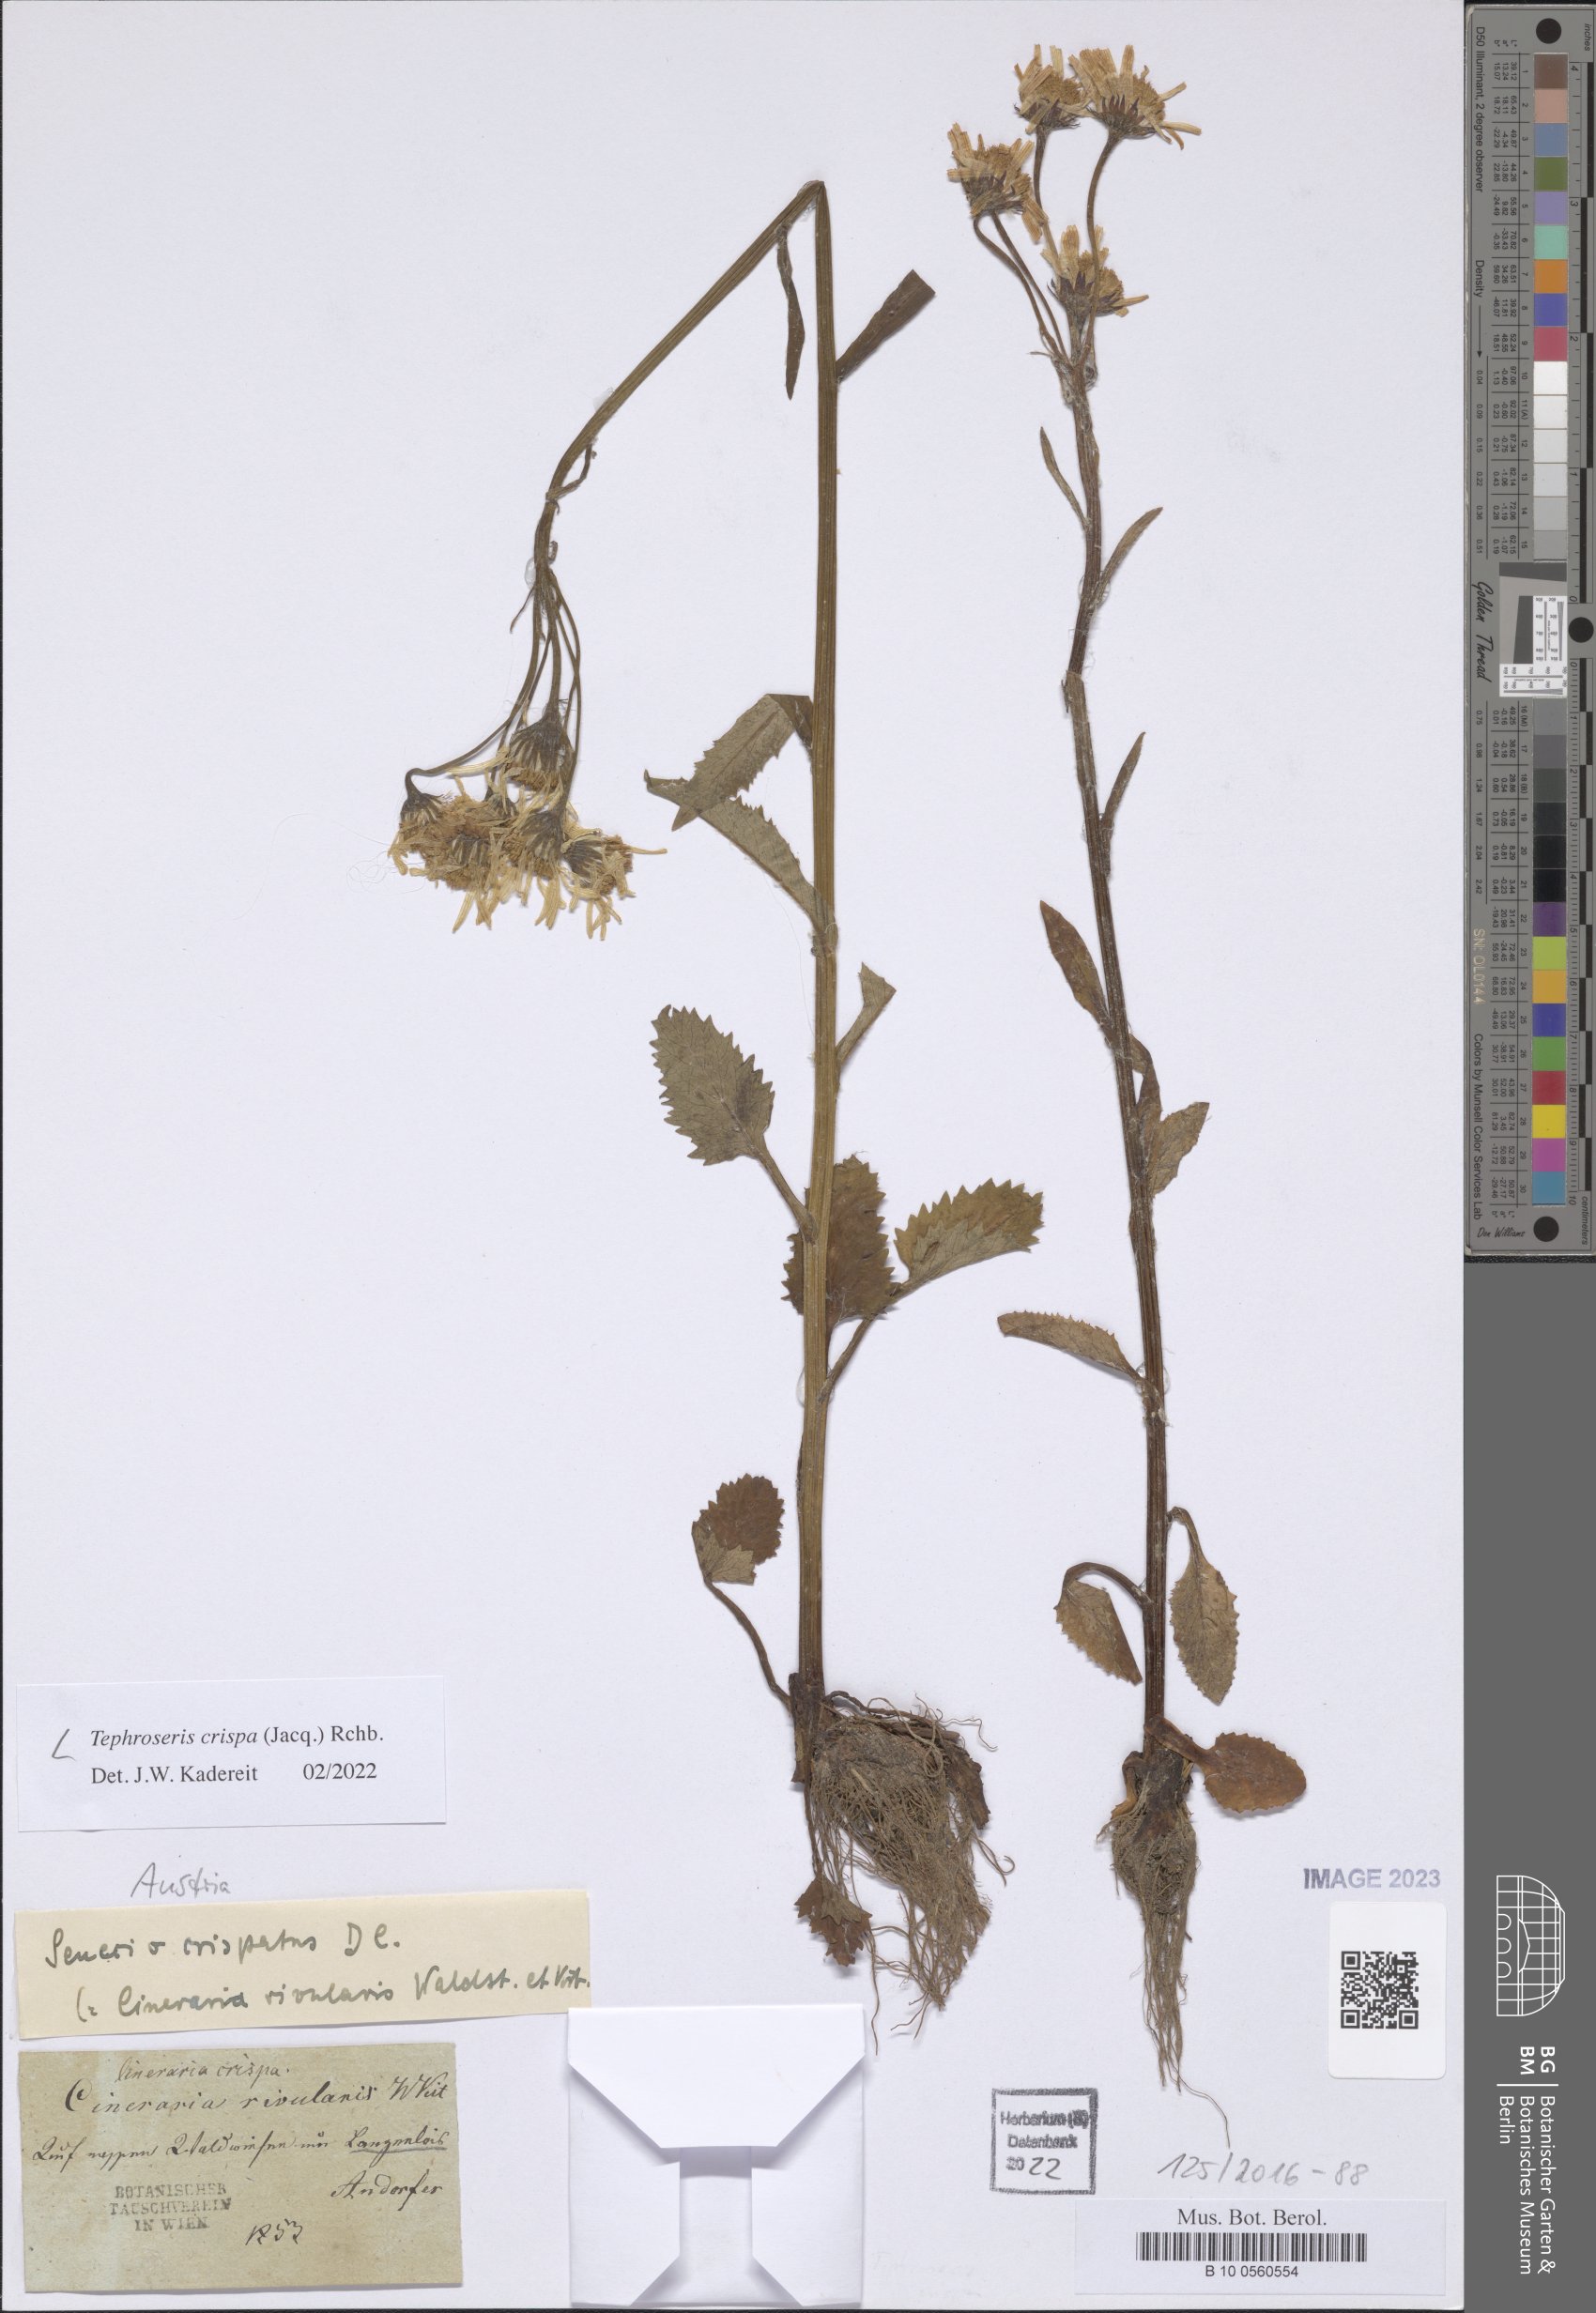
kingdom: Plantae
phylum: Tracheophyta
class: Magnoliopsida
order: Asterales
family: Asteraceae
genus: Tephroseris
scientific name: Tephroseris crispa
